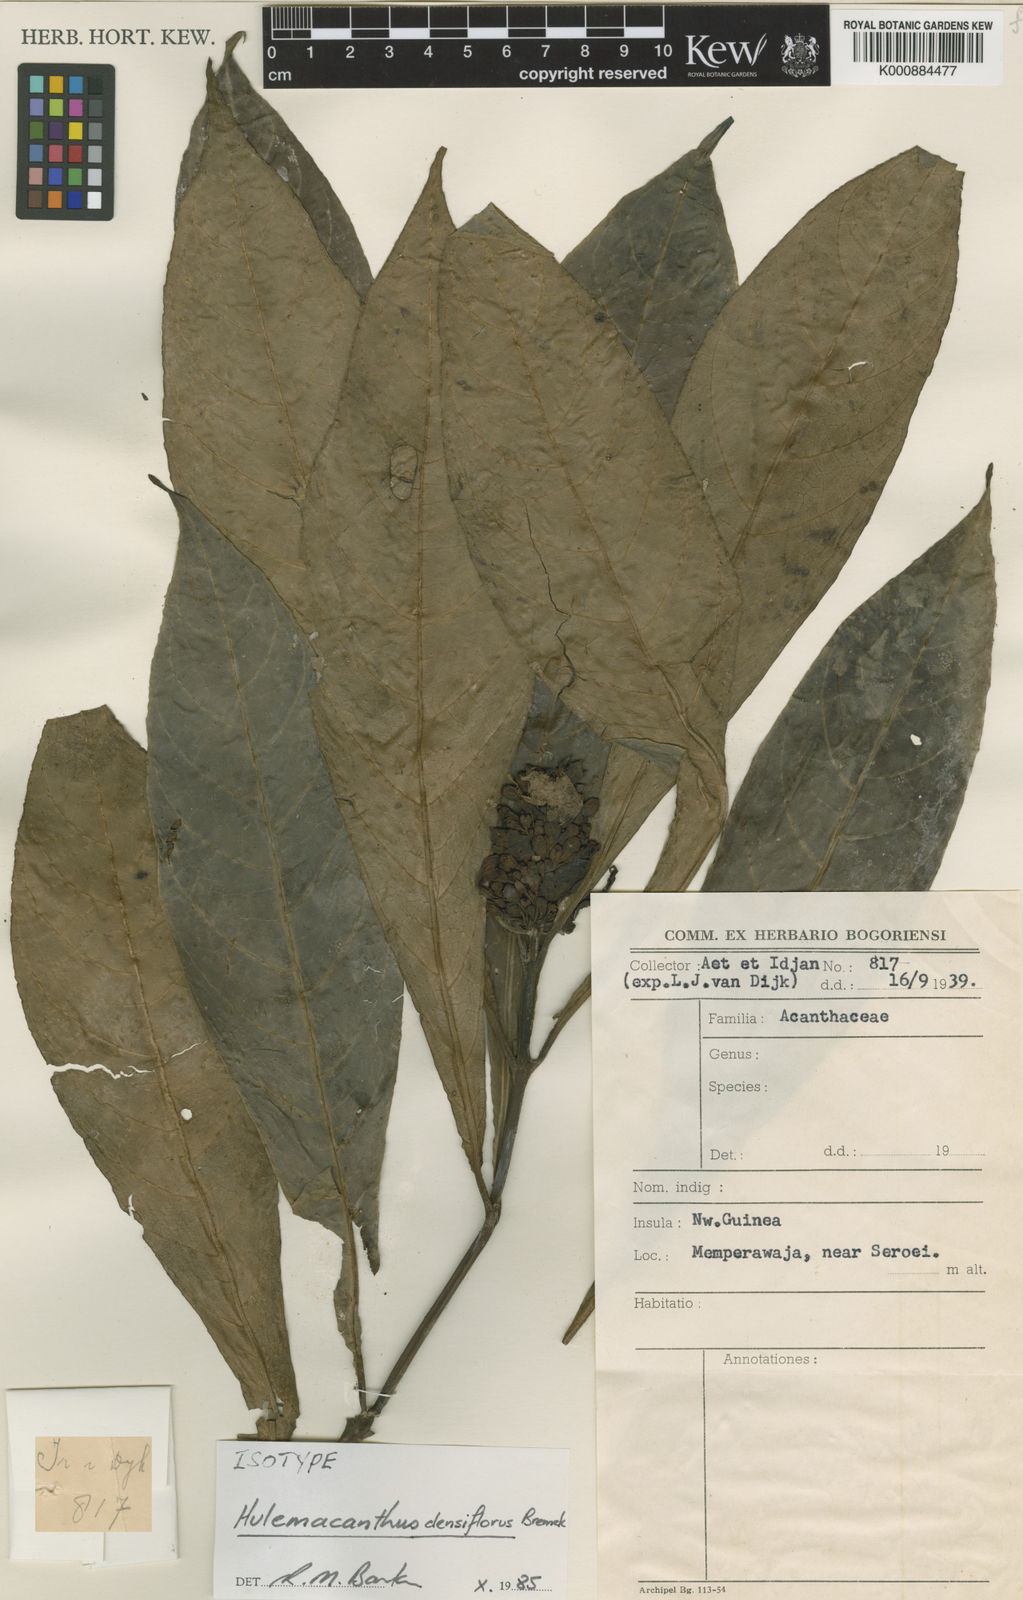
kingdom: Plantae
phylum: Tracheophyta
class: Magnoliopsida
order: Lamiales
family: Acanthaceae
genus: Hulemacanthus
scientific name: Hulemacanthus whitei
